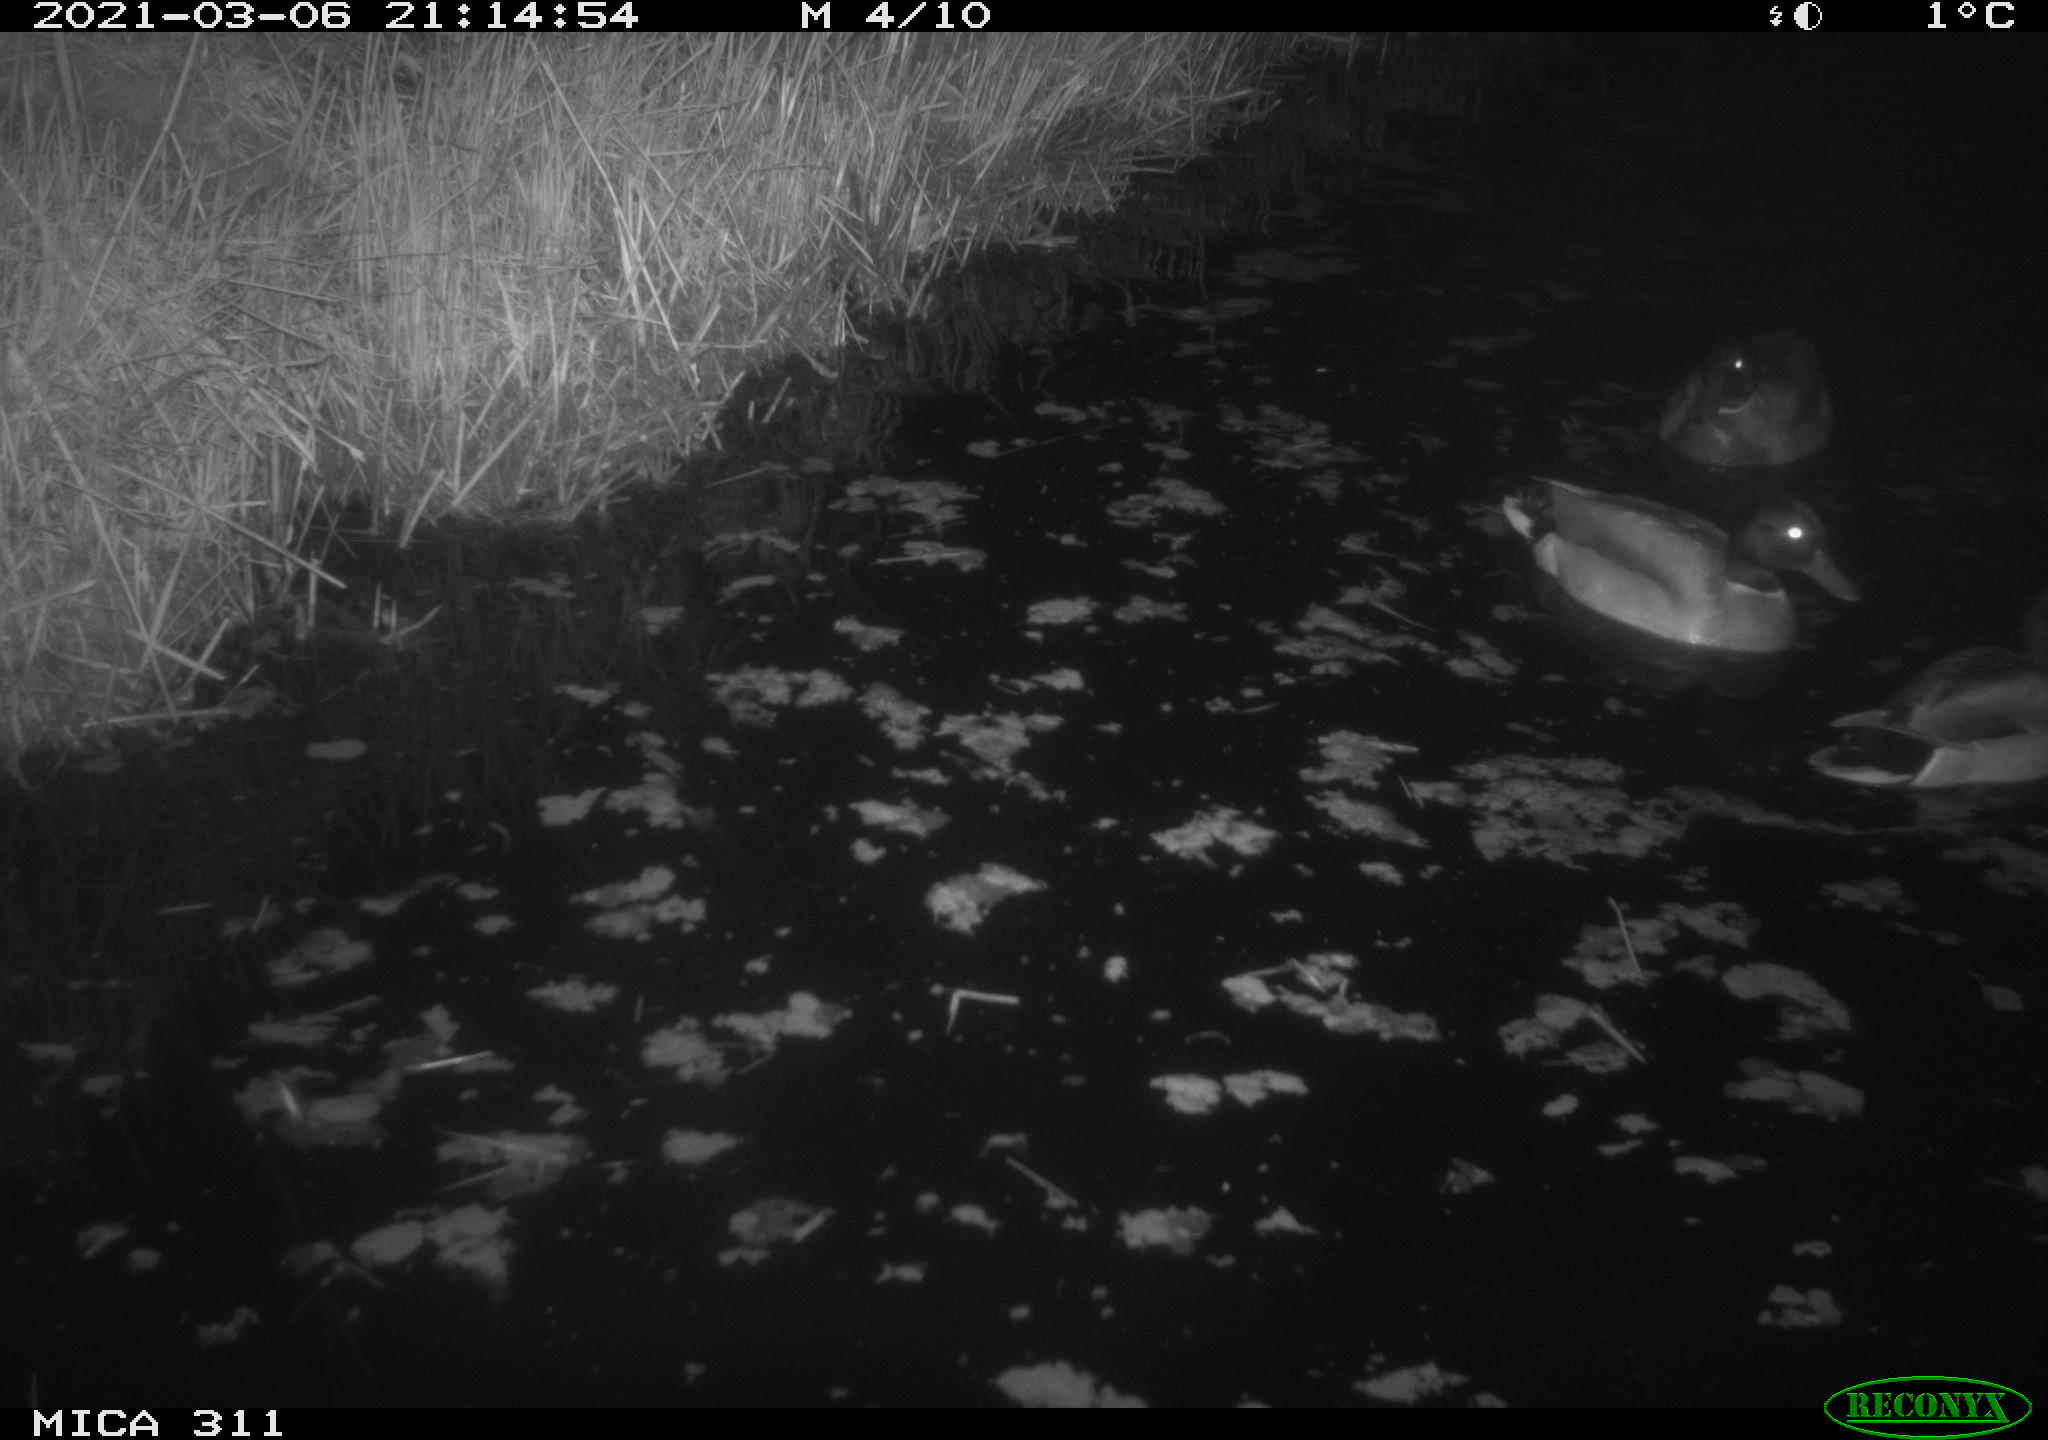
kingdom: Animalia
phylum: Chordata
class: Aves
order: Anseriformes
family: Anatidae
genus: Anas
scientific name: Anas
